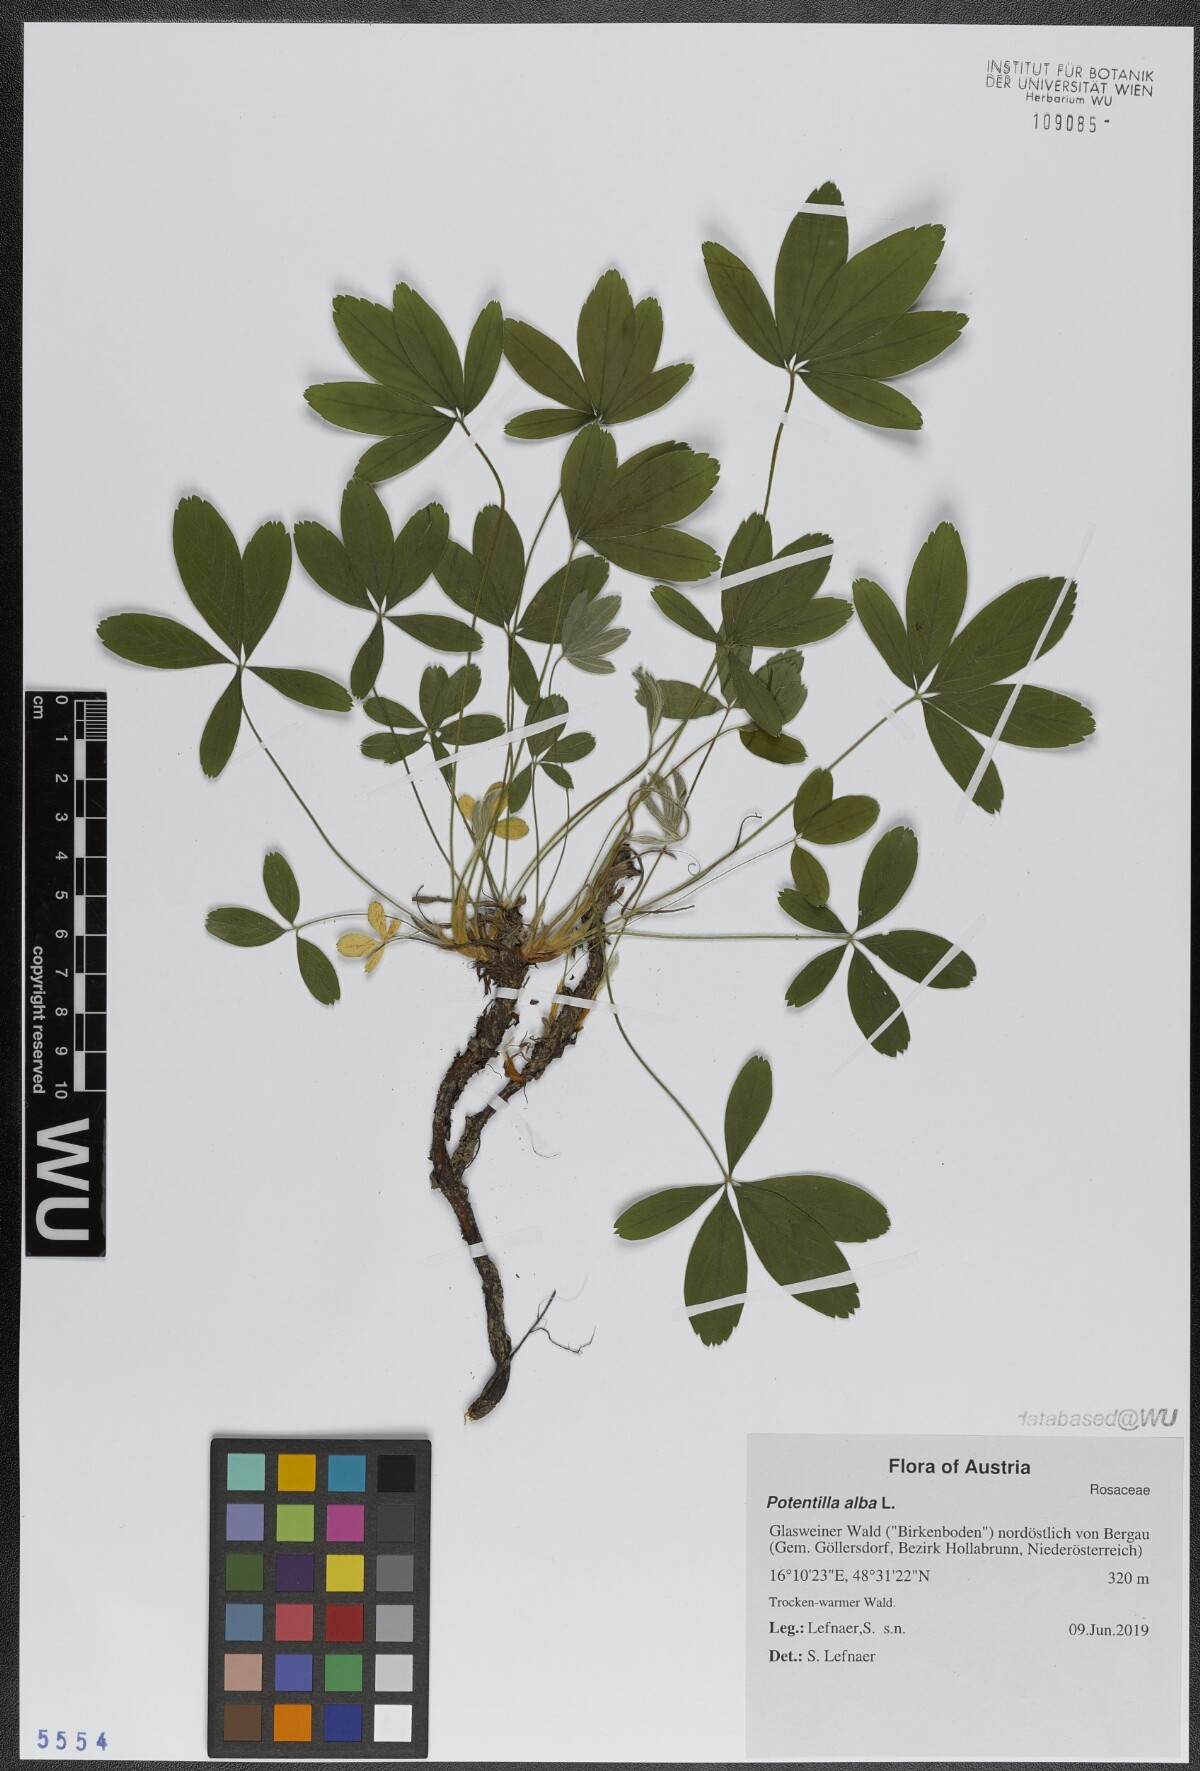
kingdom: Plantae
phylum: Tracheophyta
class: Magnoliopsida
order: Rosales
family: Rosaceae
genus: Potentilla
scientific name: Potentilla alba
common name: White cinquefoil
